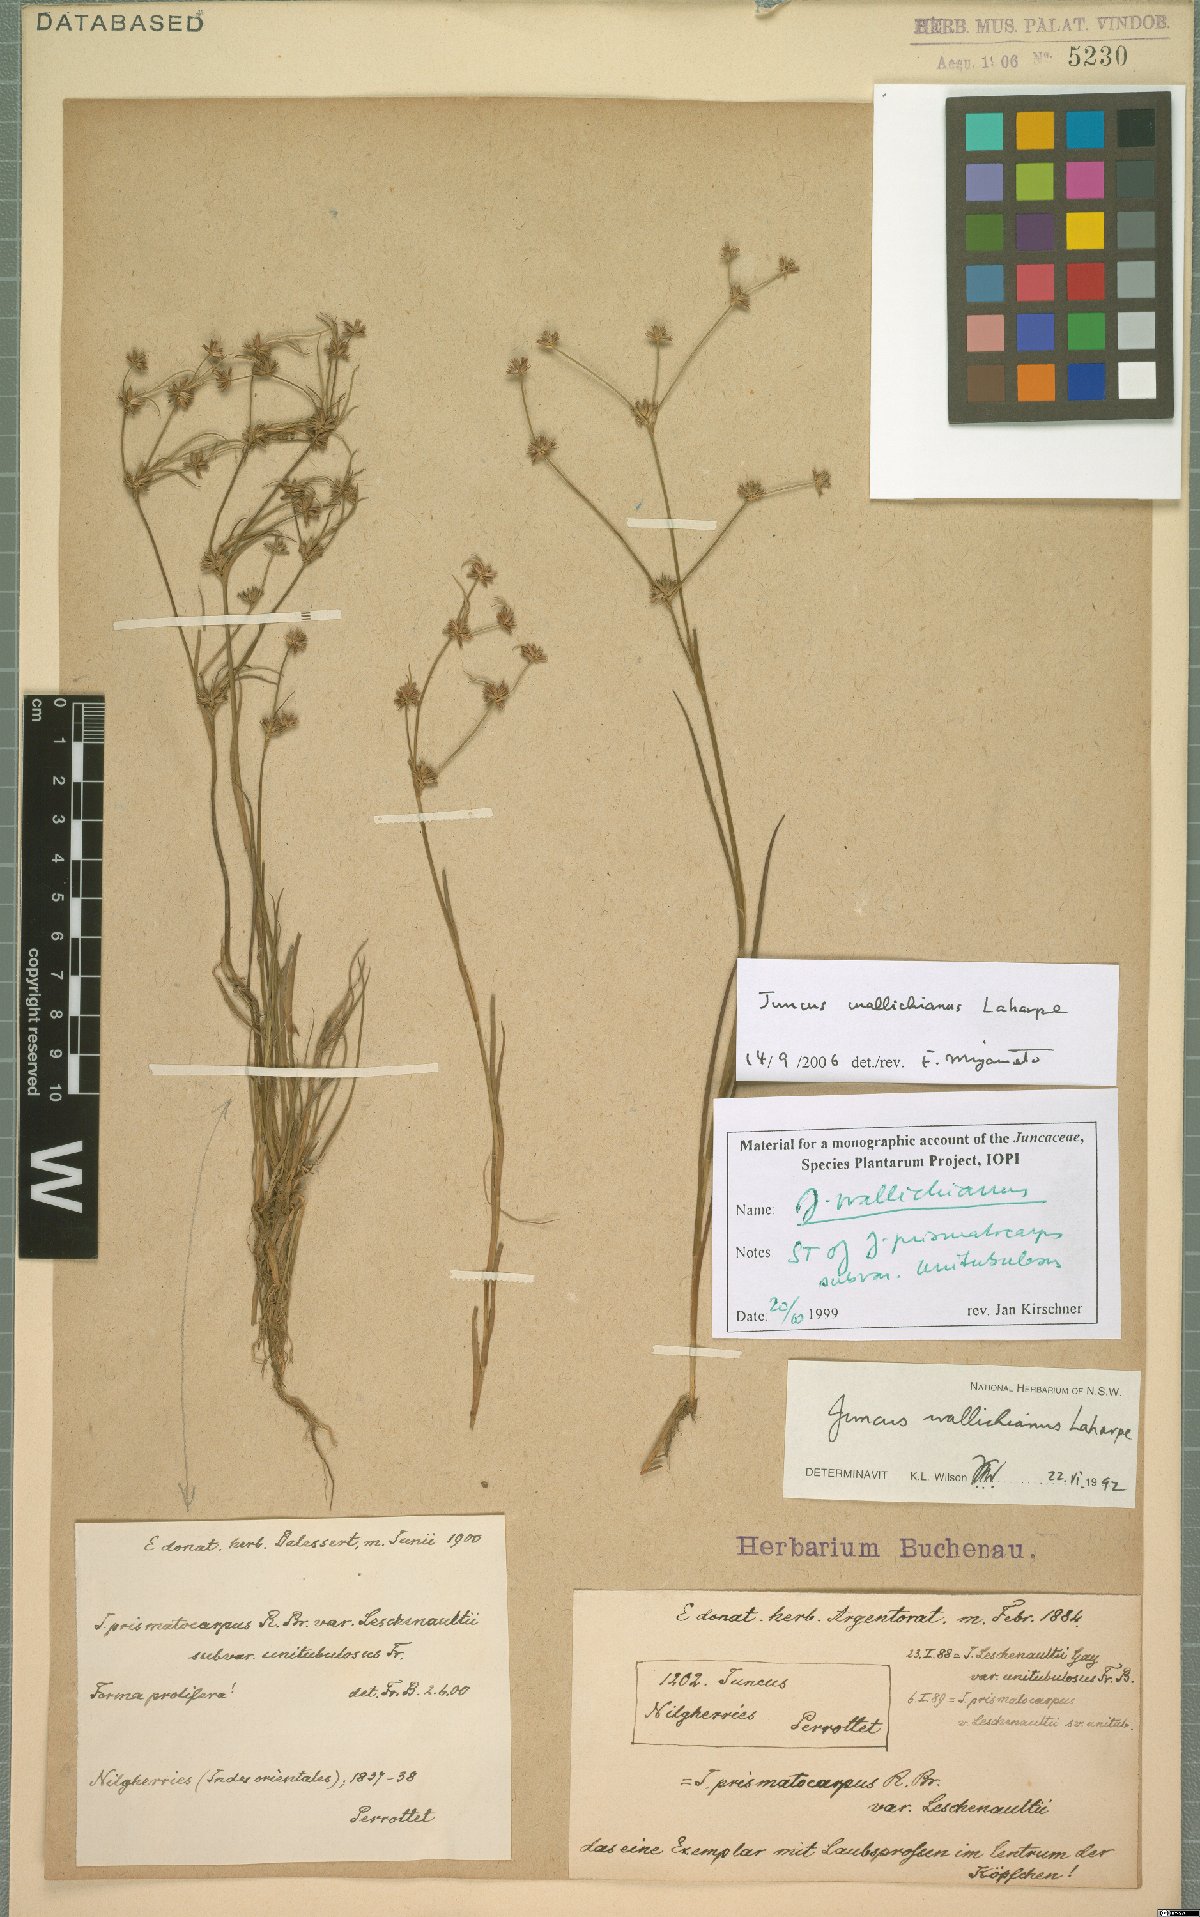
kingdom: Plantae
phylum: Tracheophyta
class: Liliopsida
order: Poales
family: Juncaceae
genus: Juncus
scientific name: Juncus wallichianus
